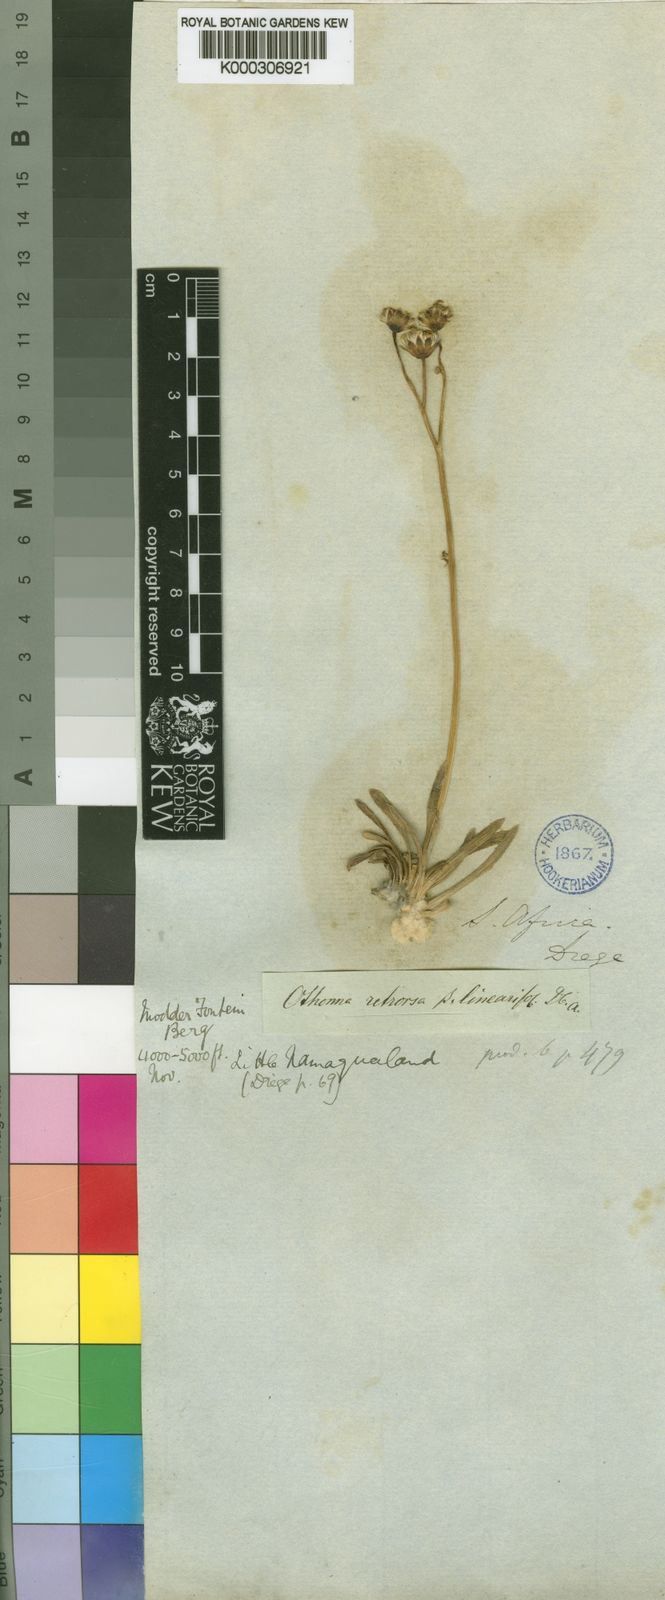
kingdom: Plantae
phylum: Tracheophyta
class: Magnoliopsida
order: Asterales
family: Asteraceae
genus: Othonna
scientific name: Othonna retrorsa
